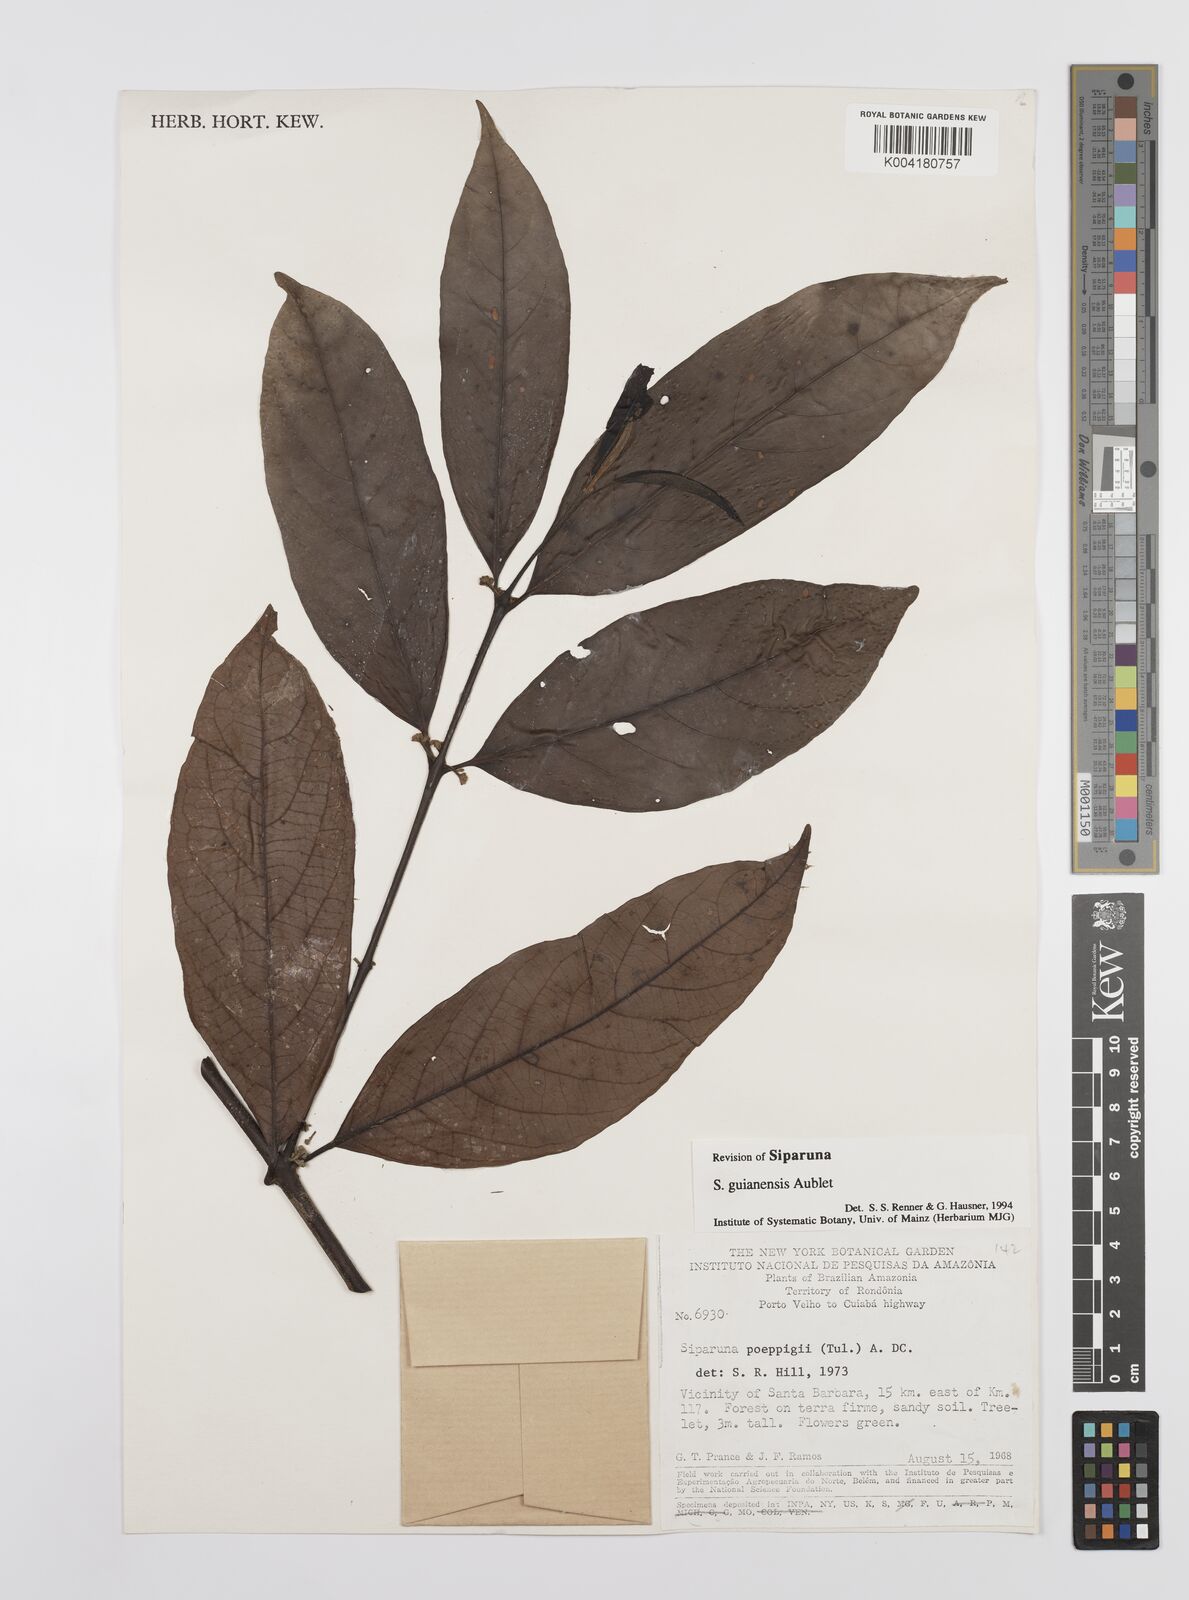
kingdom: Plantae
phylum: Tracheophyta
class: Magnoliopsida
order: Laurales
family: Siparunaceae
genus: Siparuna
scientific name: Siparuna guianensis
